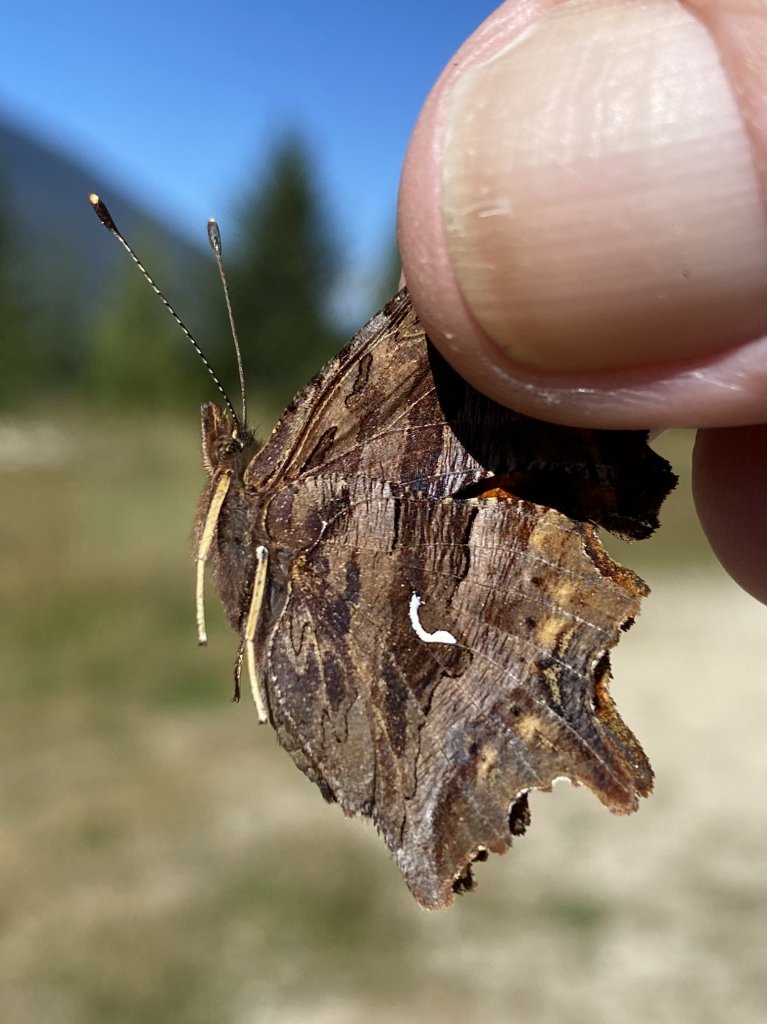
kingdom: Animalia
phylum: Arthropoda
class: Insecta
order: Lepidoptera
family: Nymphalidae
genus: Polygonia
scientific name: Polygonia satyrus
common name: Satyr Comma
